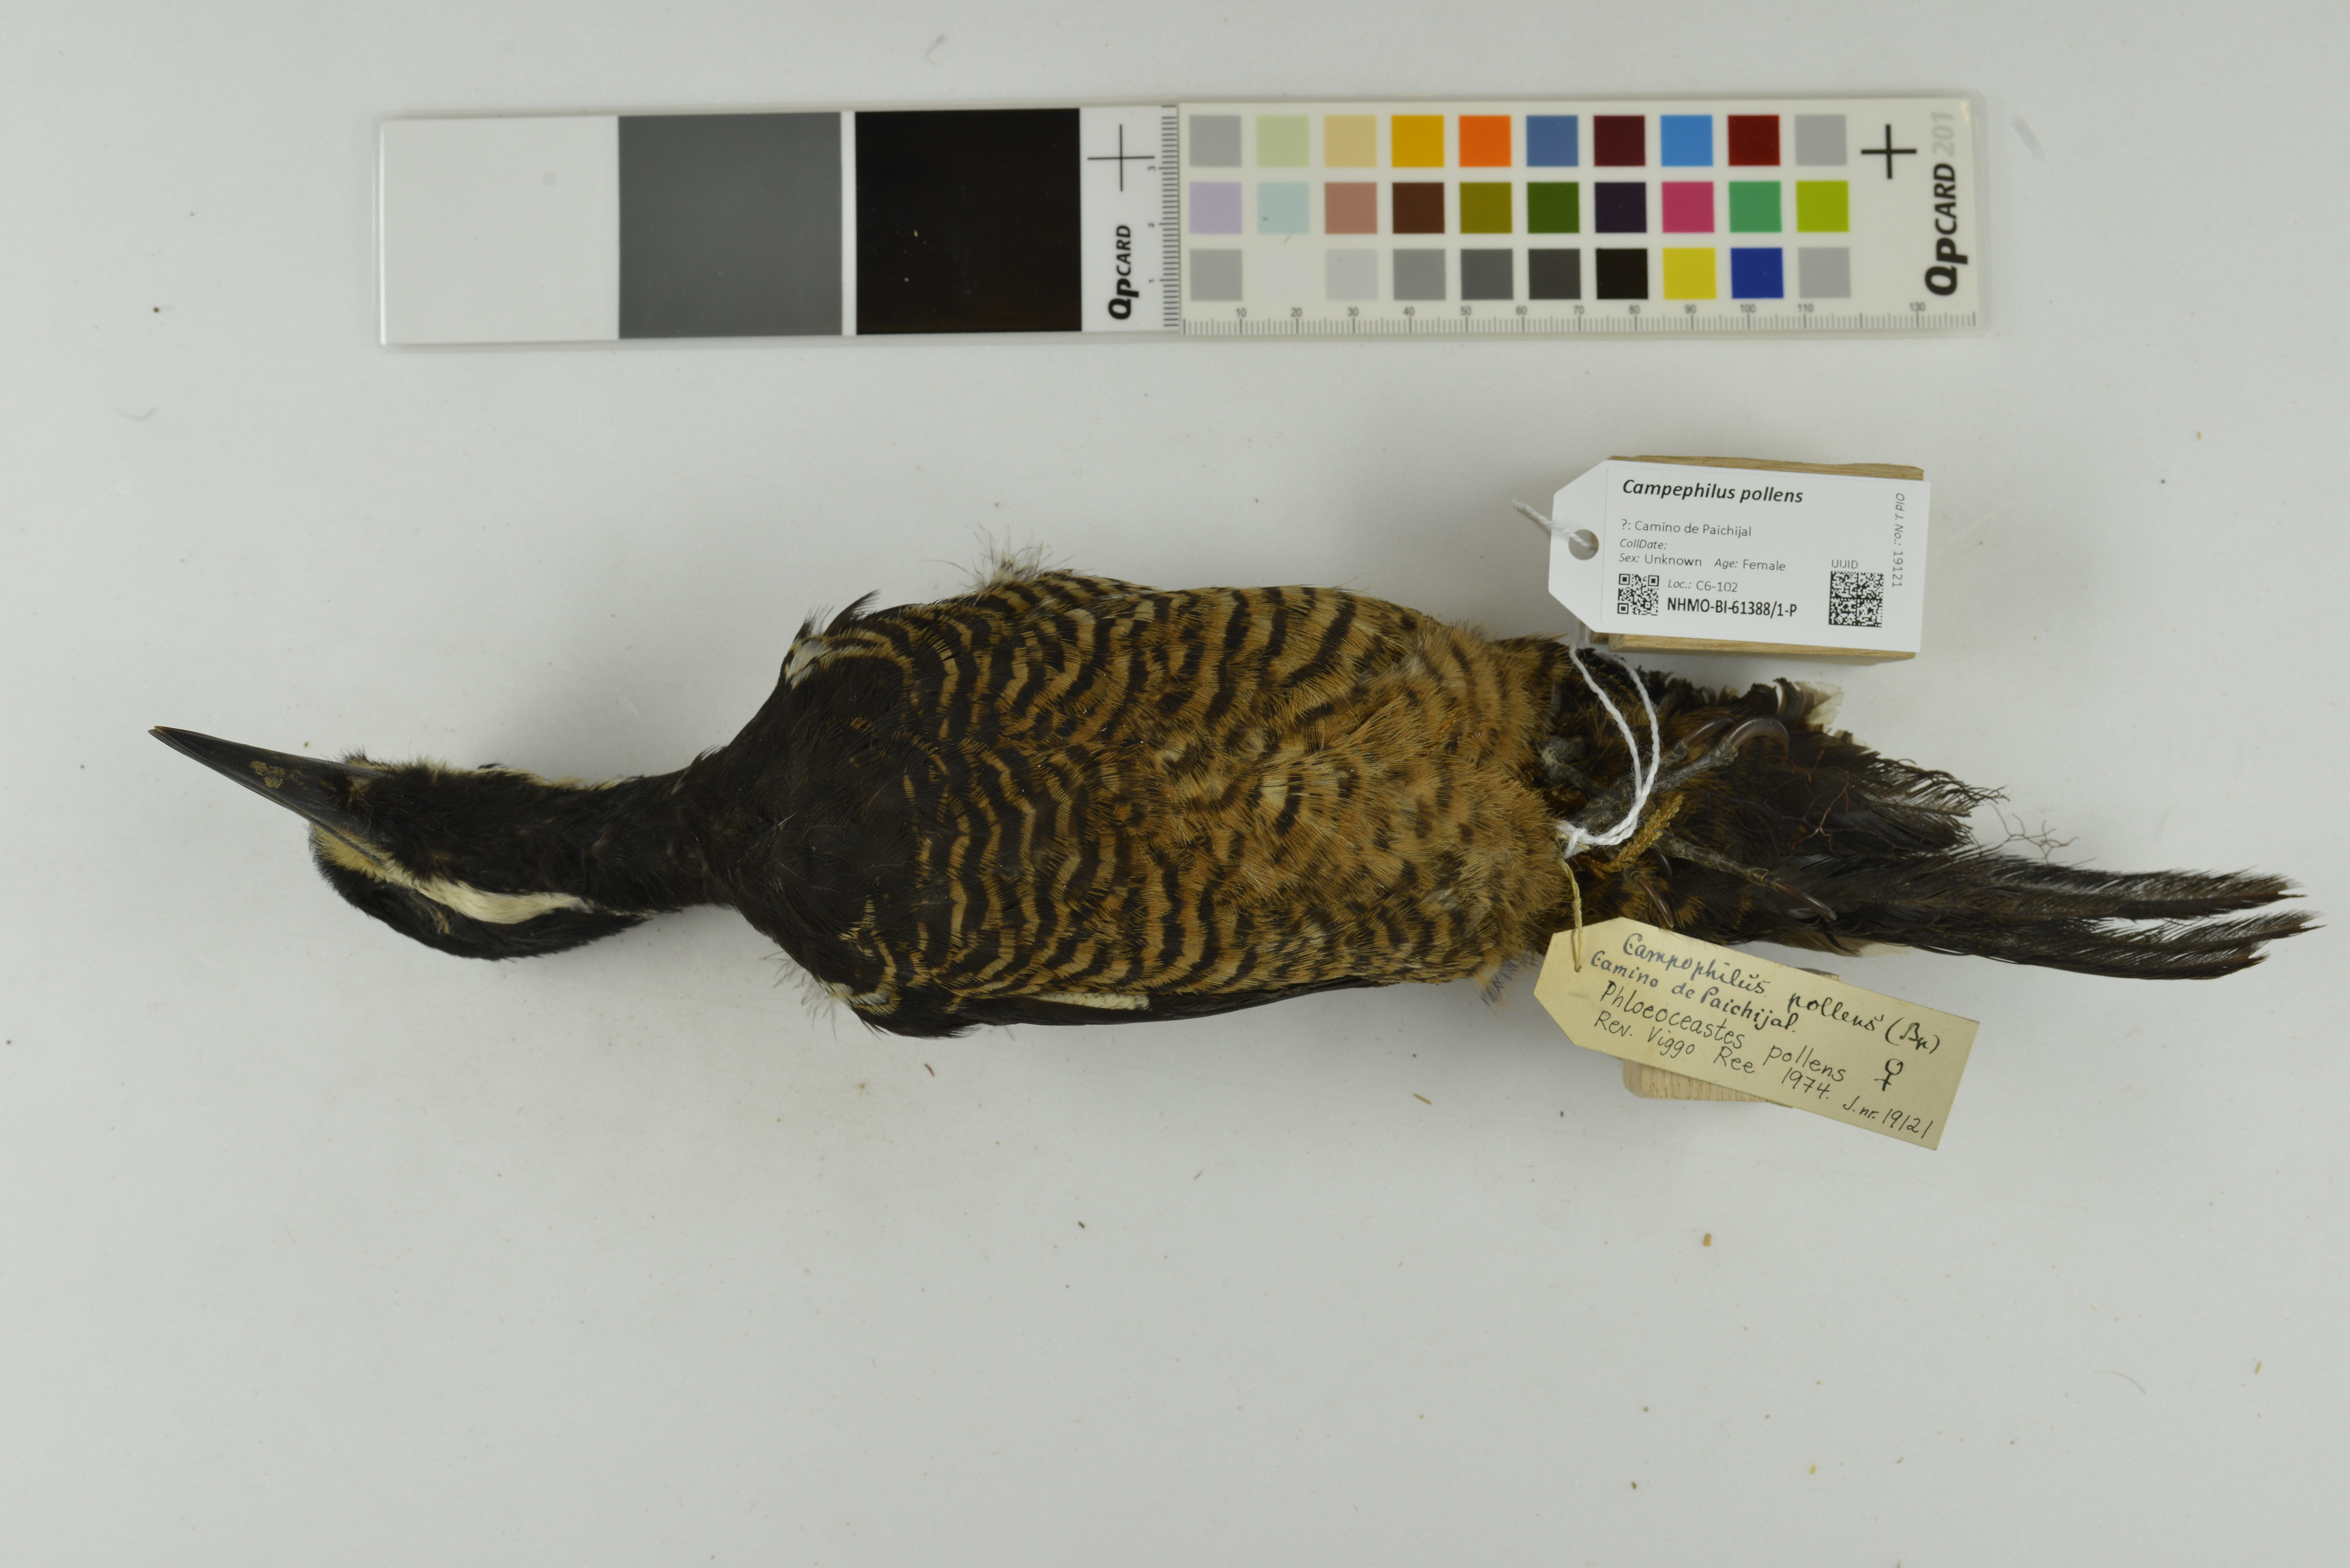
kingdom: Animalia
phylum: Chordata
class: Aves
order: Piciformes
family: Picidae
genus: Campephilus
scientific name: Campephilus pollens
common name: Powerful woodpecker
